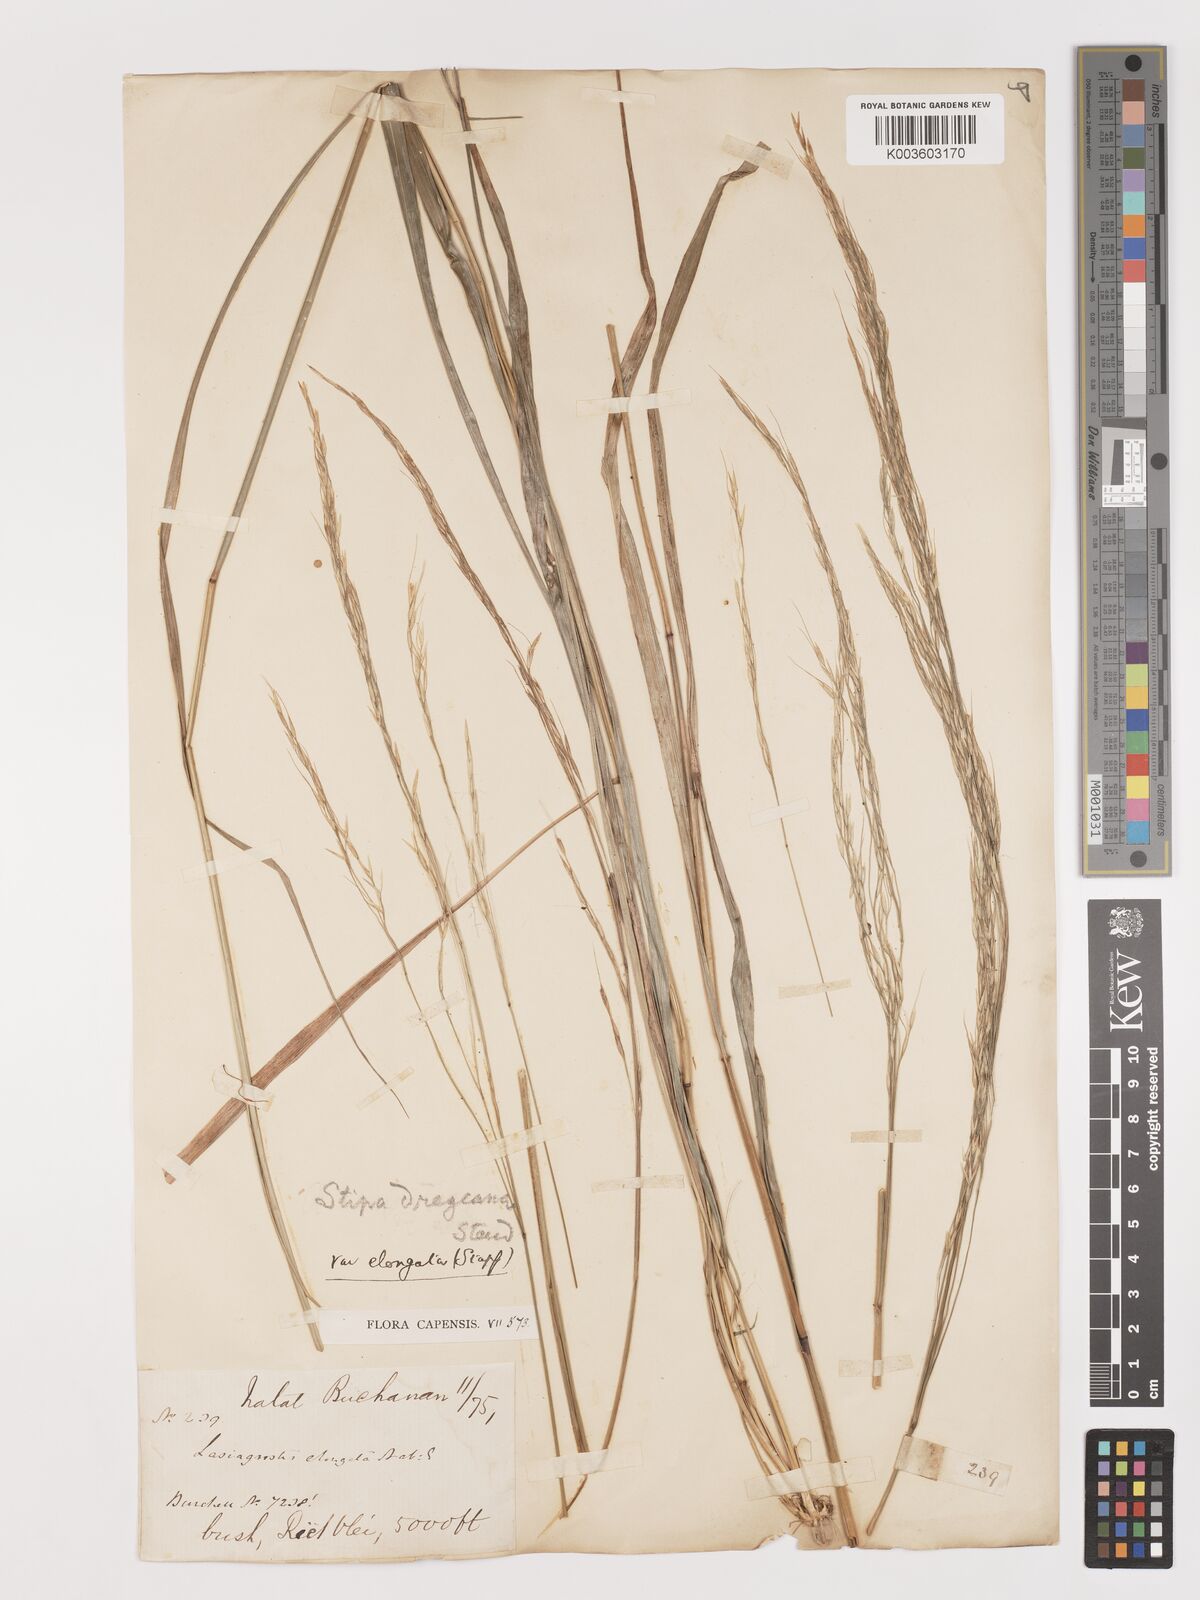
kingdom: Plantae
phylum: Tracheophyta
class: Liliopsida
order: Poales
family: Poaceae
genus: Stipa
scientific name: Stipa dregeana
